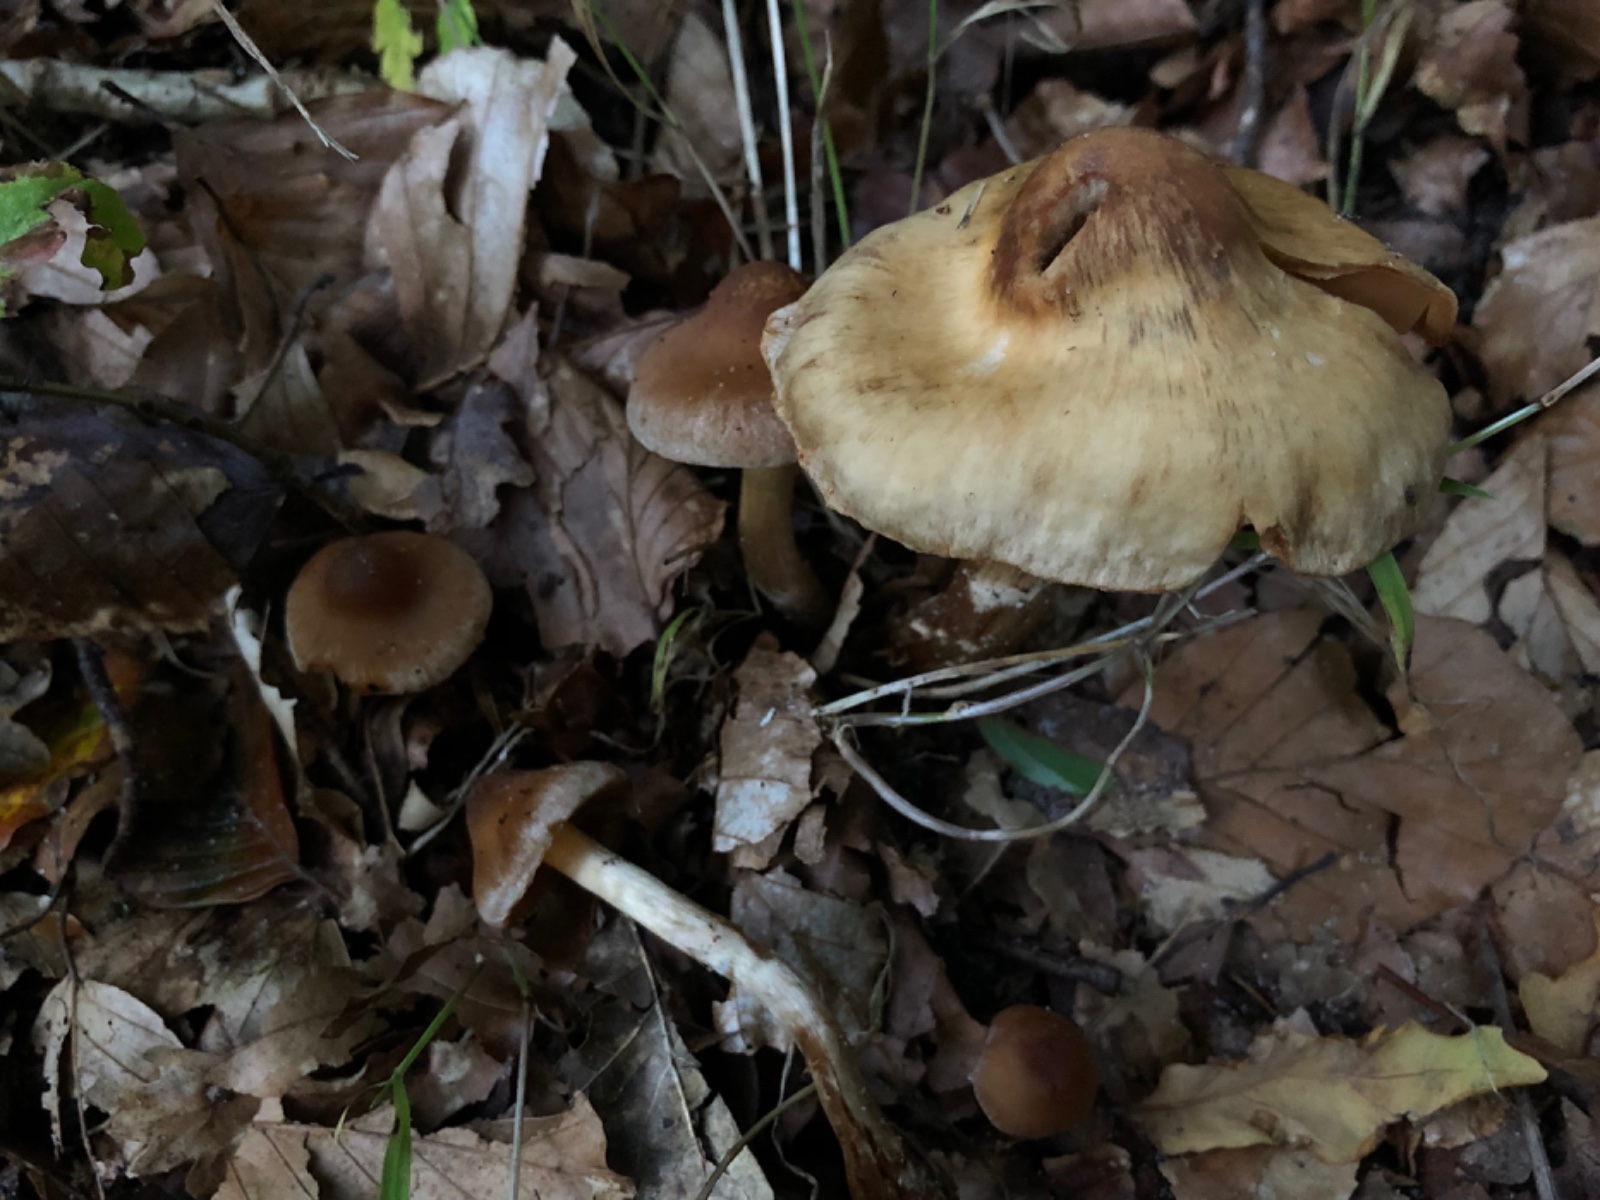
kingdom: Fungi
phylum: Basidiomycota
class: Agaricomycetes
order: Agaricales
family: Cortinariaceae
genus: Cortinarius
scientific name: Cortinarius
